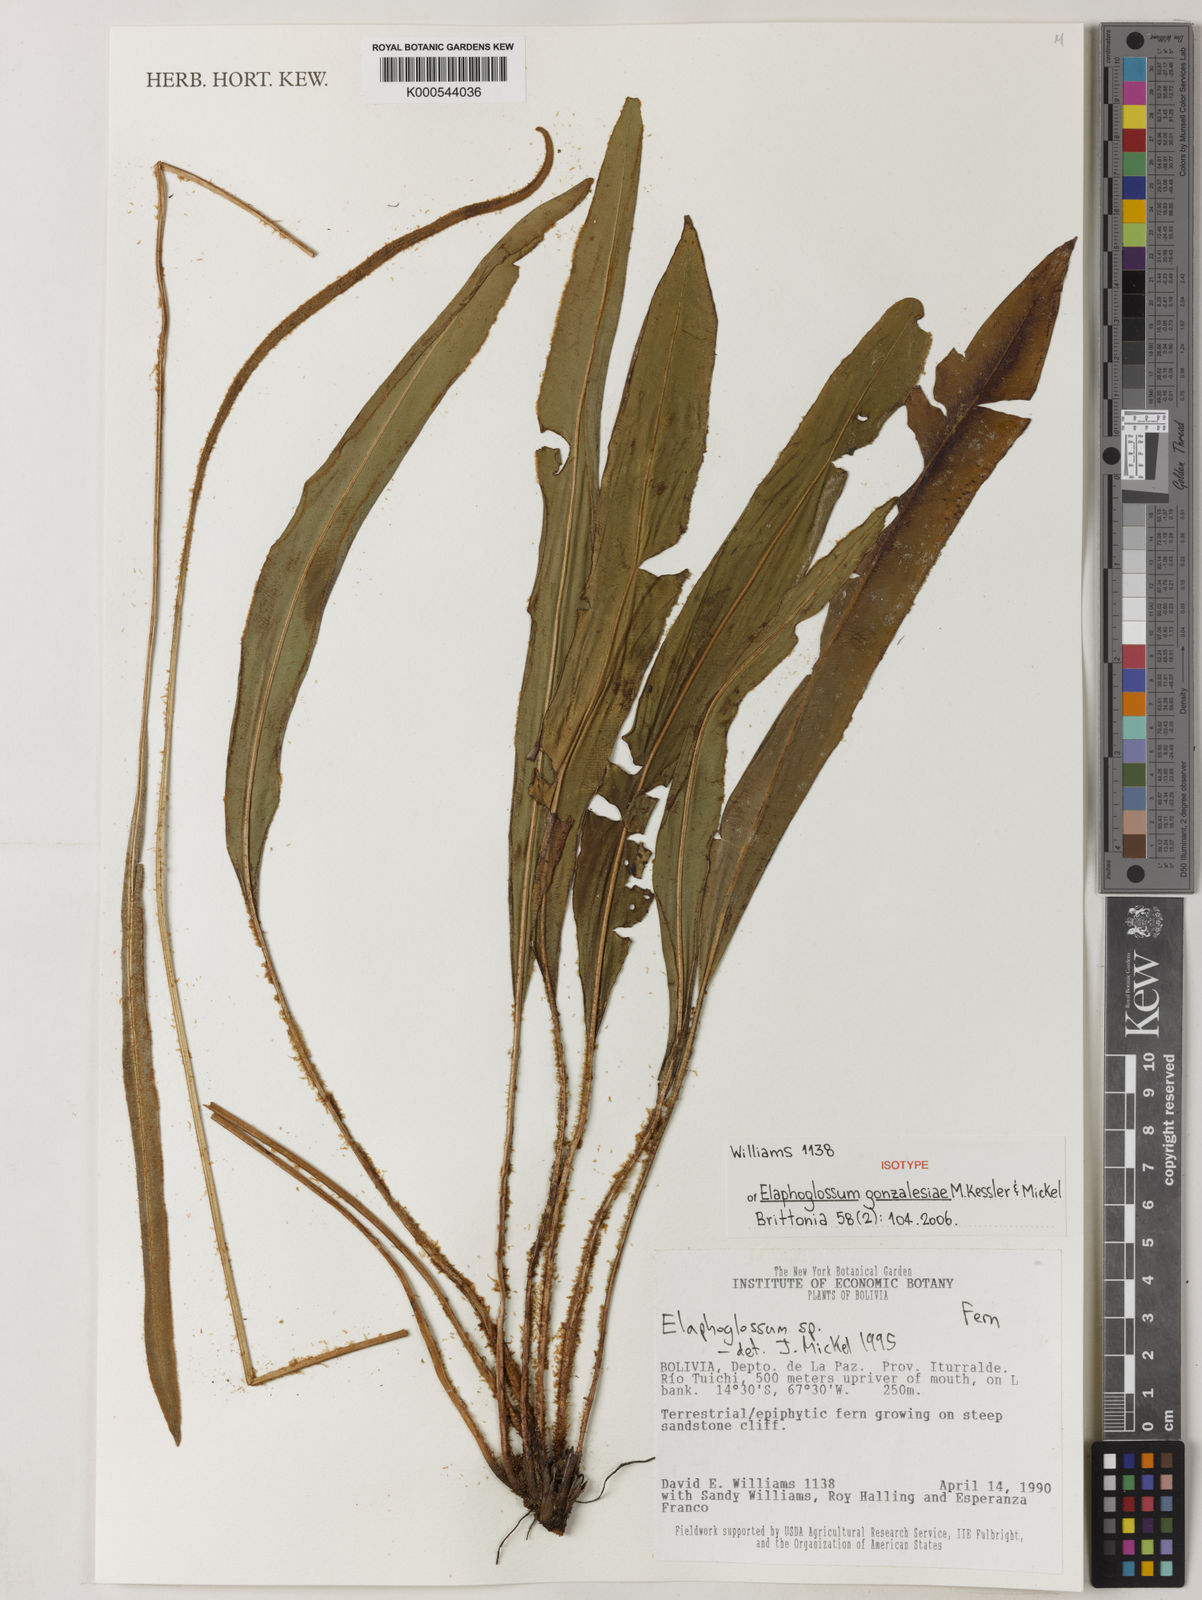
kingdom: Plantae
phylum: Tracheophyta
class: Polypodiopsida
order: Polypodiales
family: Dryopteridaceae
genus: Elaphoglossum
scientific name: Elaphoglossum gonzalesiae
